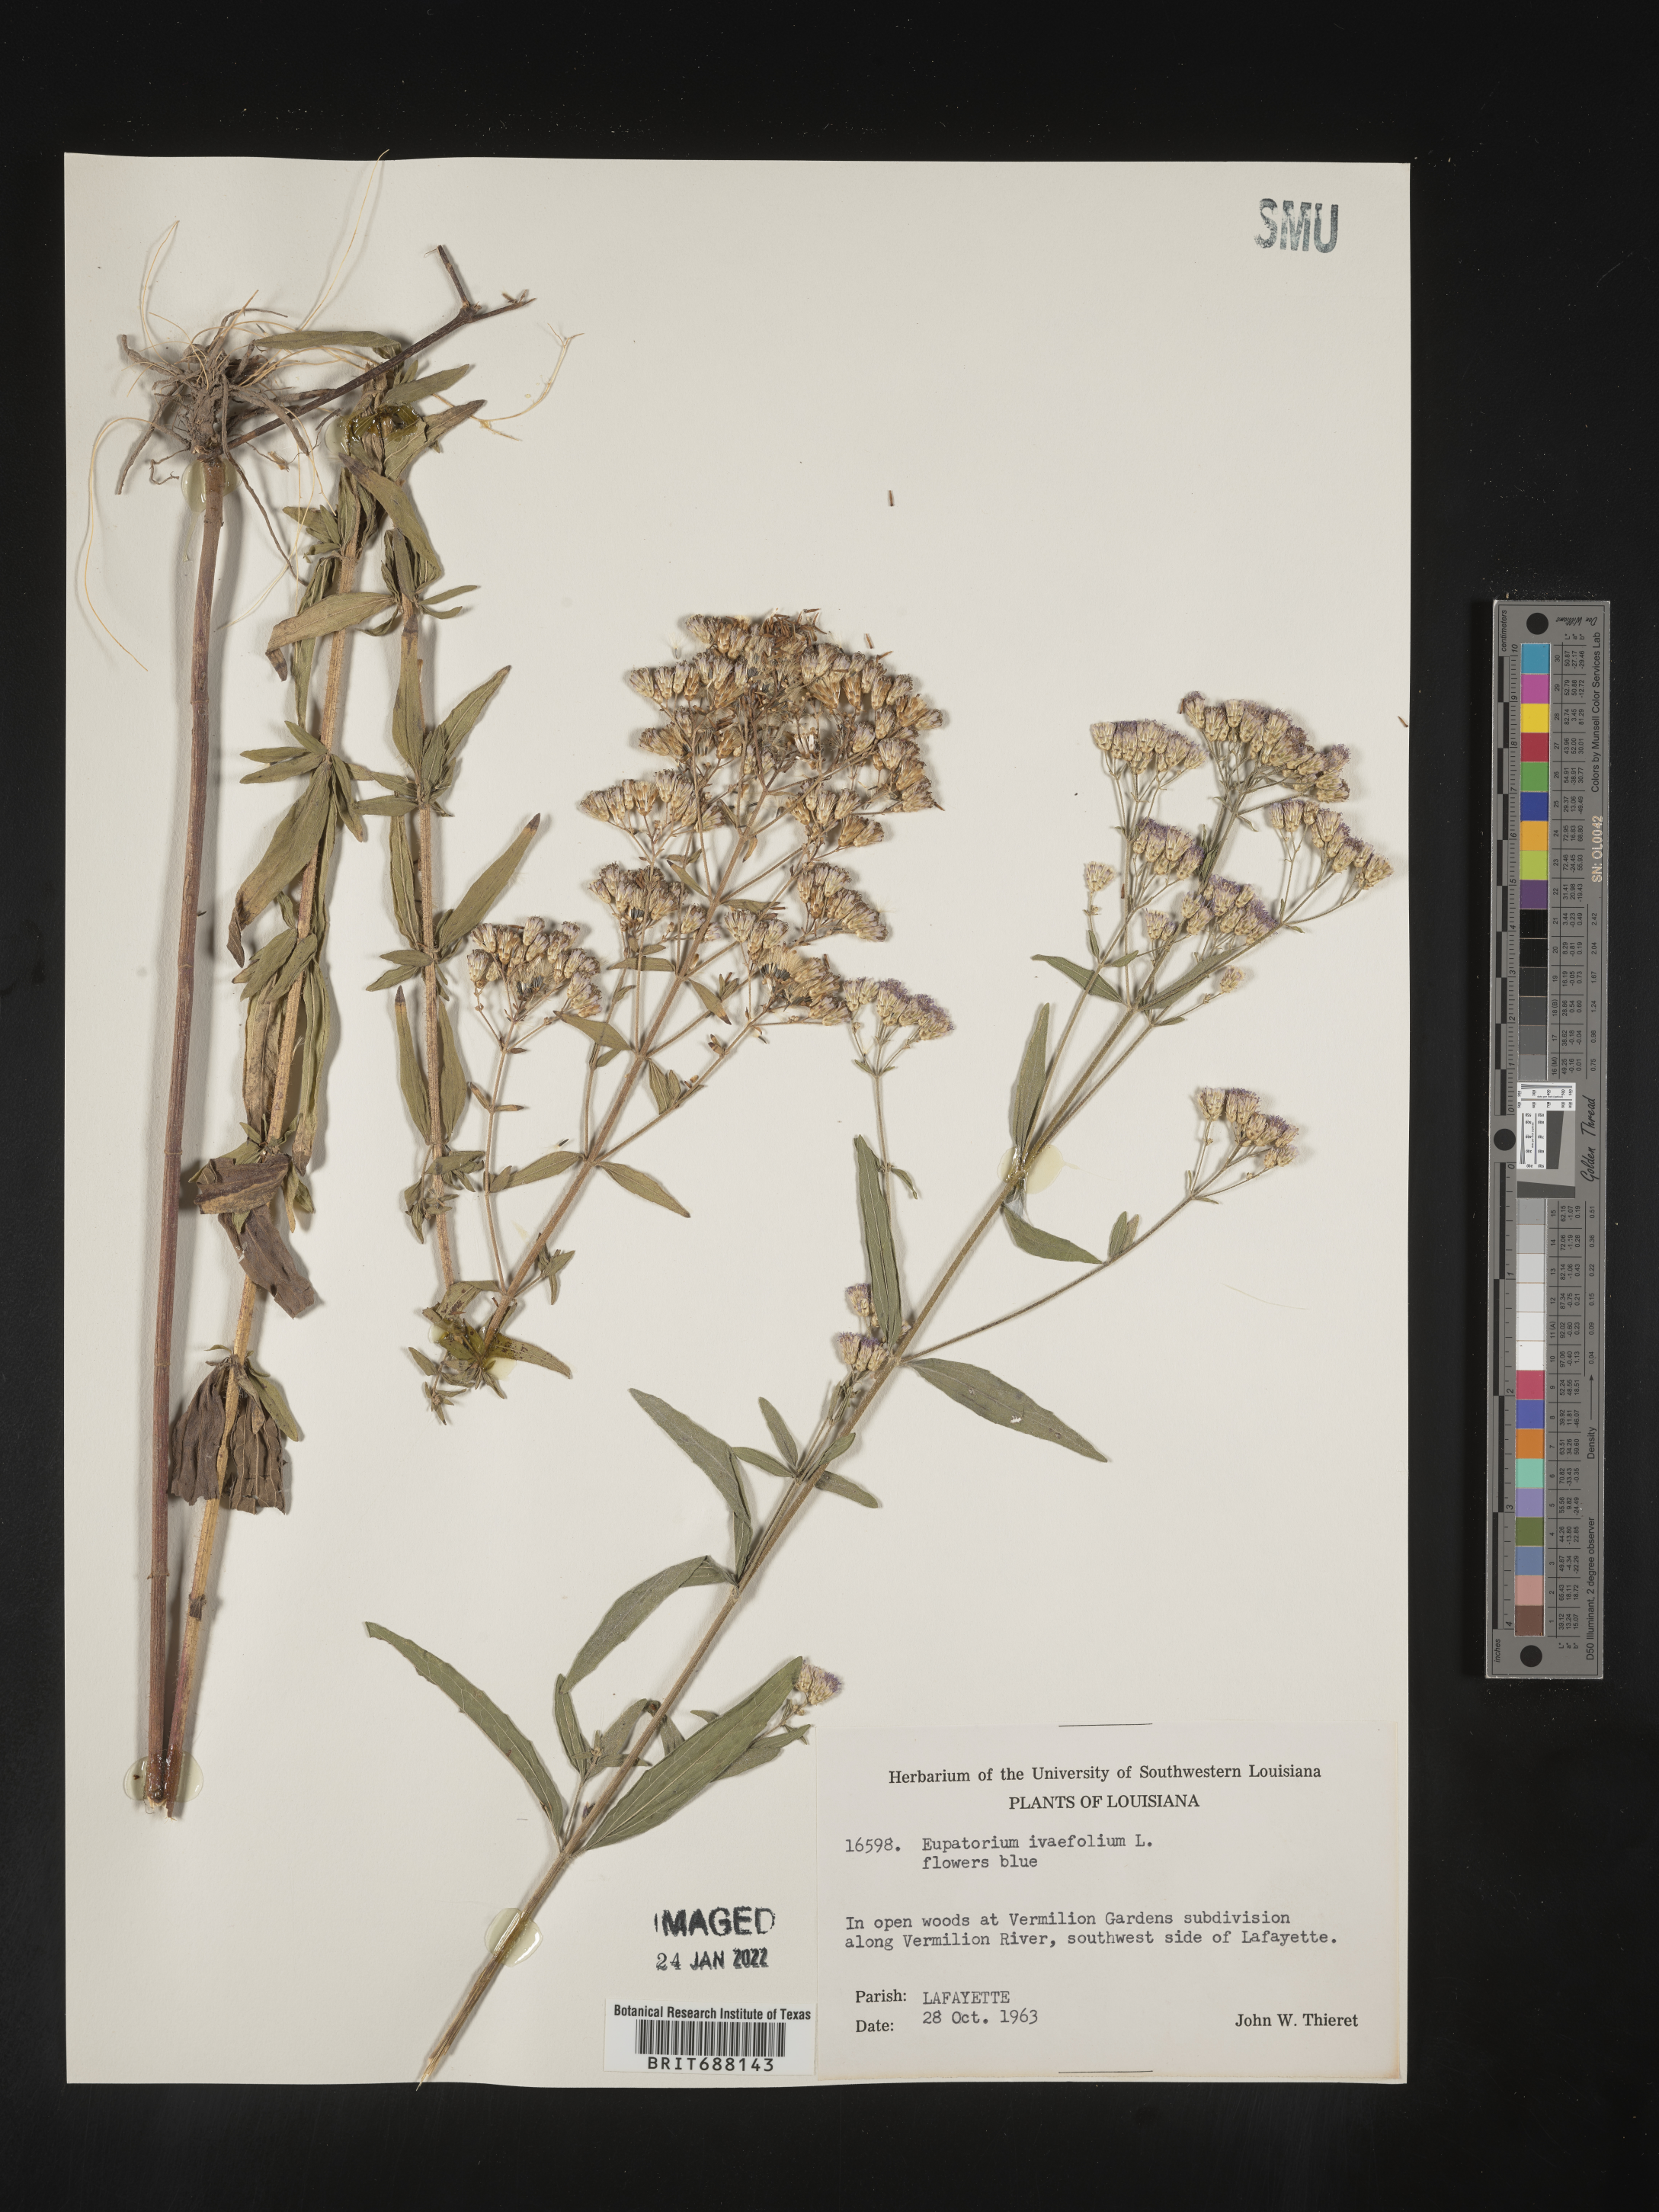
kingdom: Plantae
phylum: Tracheophyta
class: Magnoliopsida
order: Asterales
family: Asteraceae
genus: Chromolaena
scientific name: Chromolaena ivifolia
